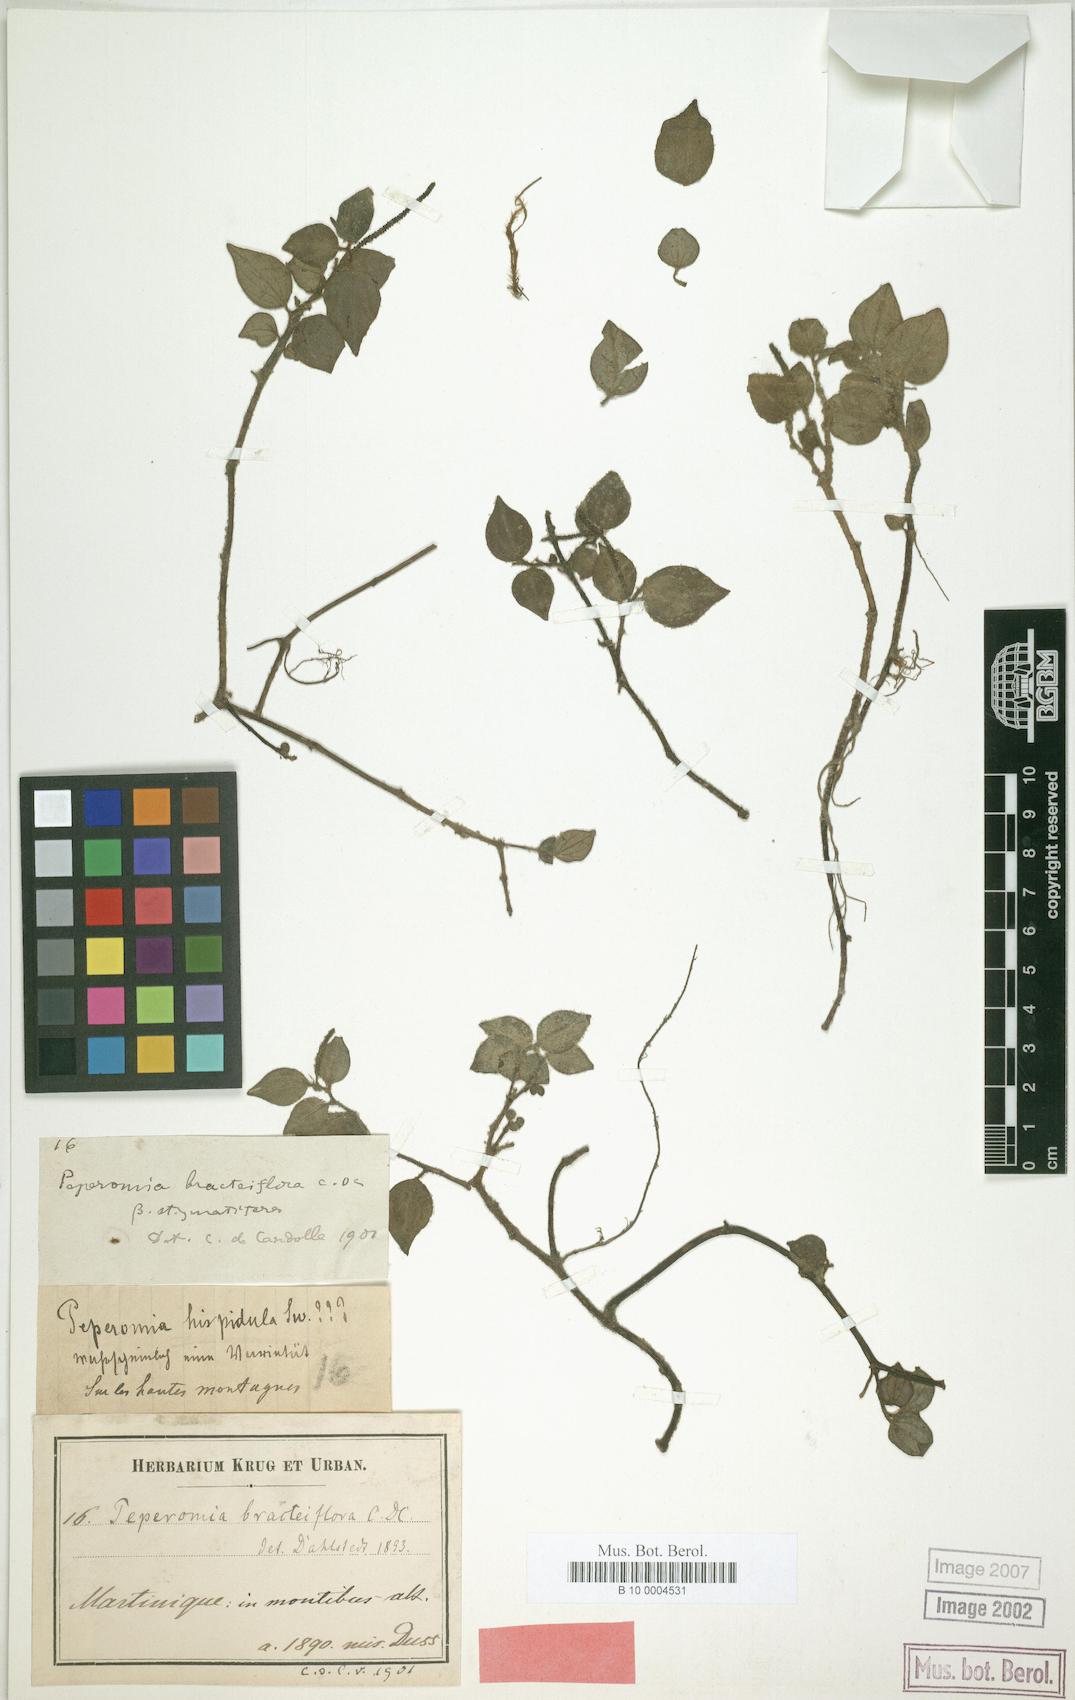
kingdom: Plantae
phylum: Tracheophyta
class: Magnoliopsida
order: Piperales
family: Piperaceae
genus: Peperomia
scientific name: Peperomia hirtella
